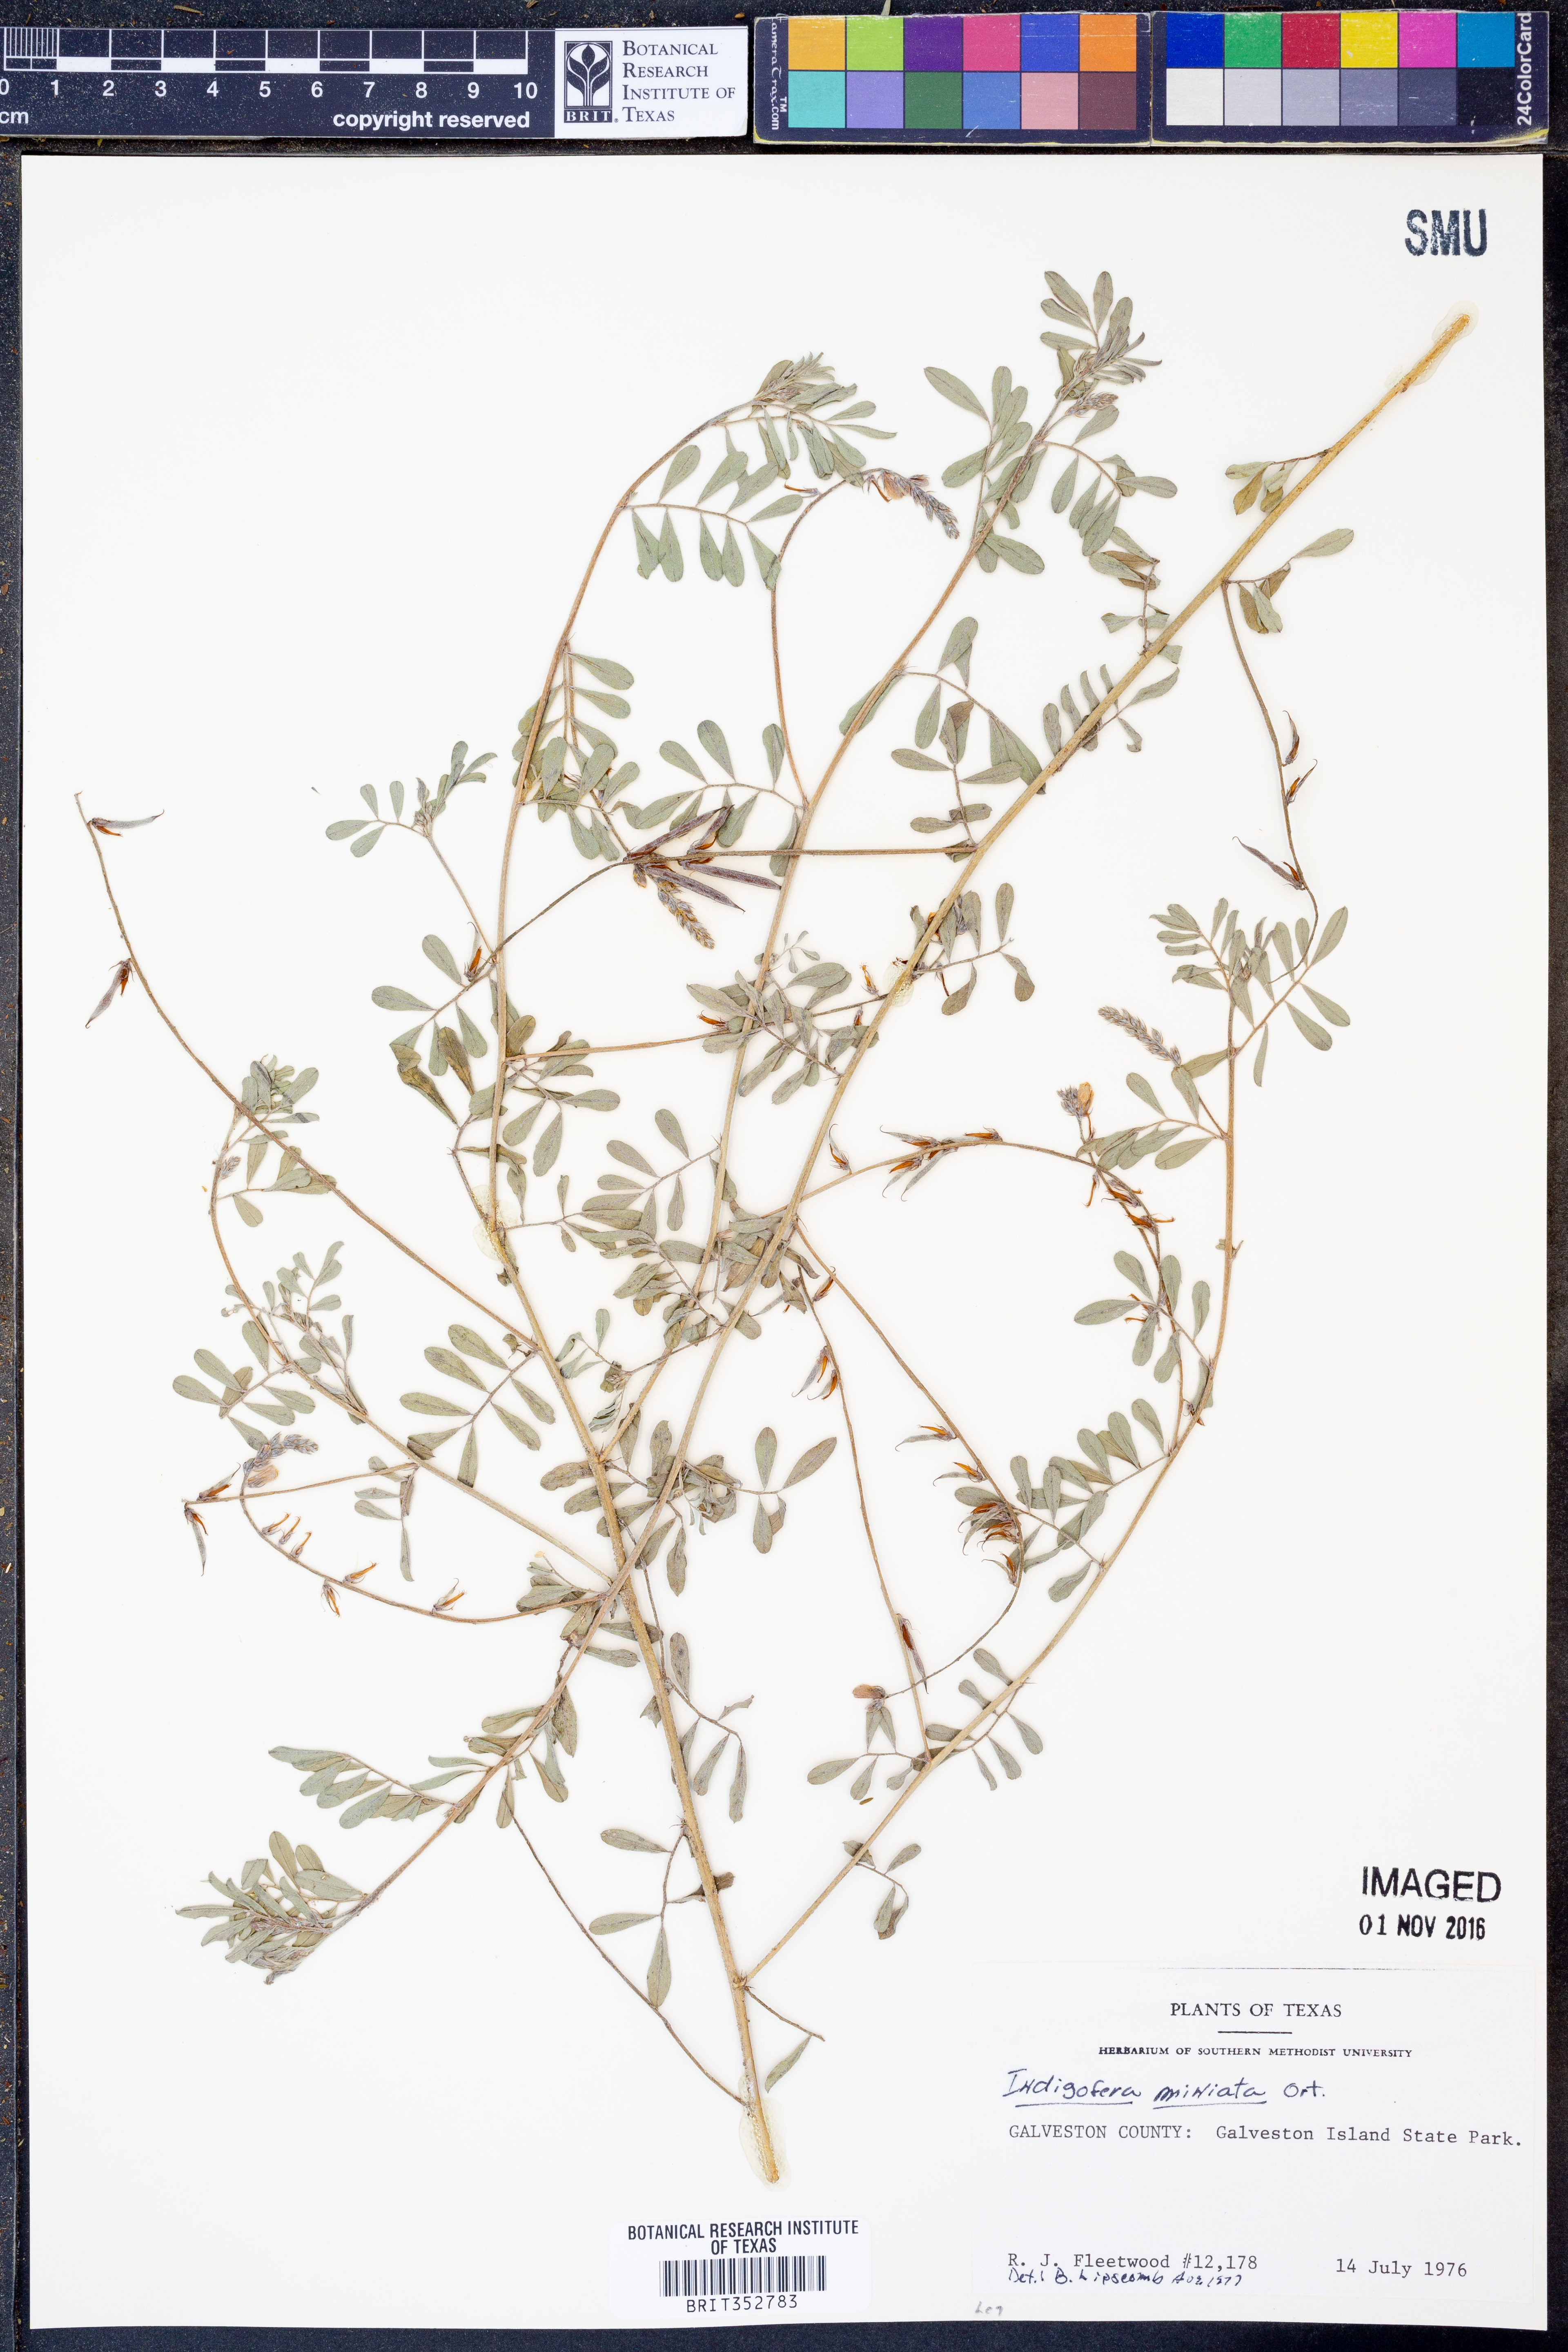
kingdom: Plantae
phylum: Tracheophyta
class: Magnoliopsida
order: Fabales
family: Fabaceae
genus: Indigofera
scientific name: Indigofera miniata
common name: Coast indigo
